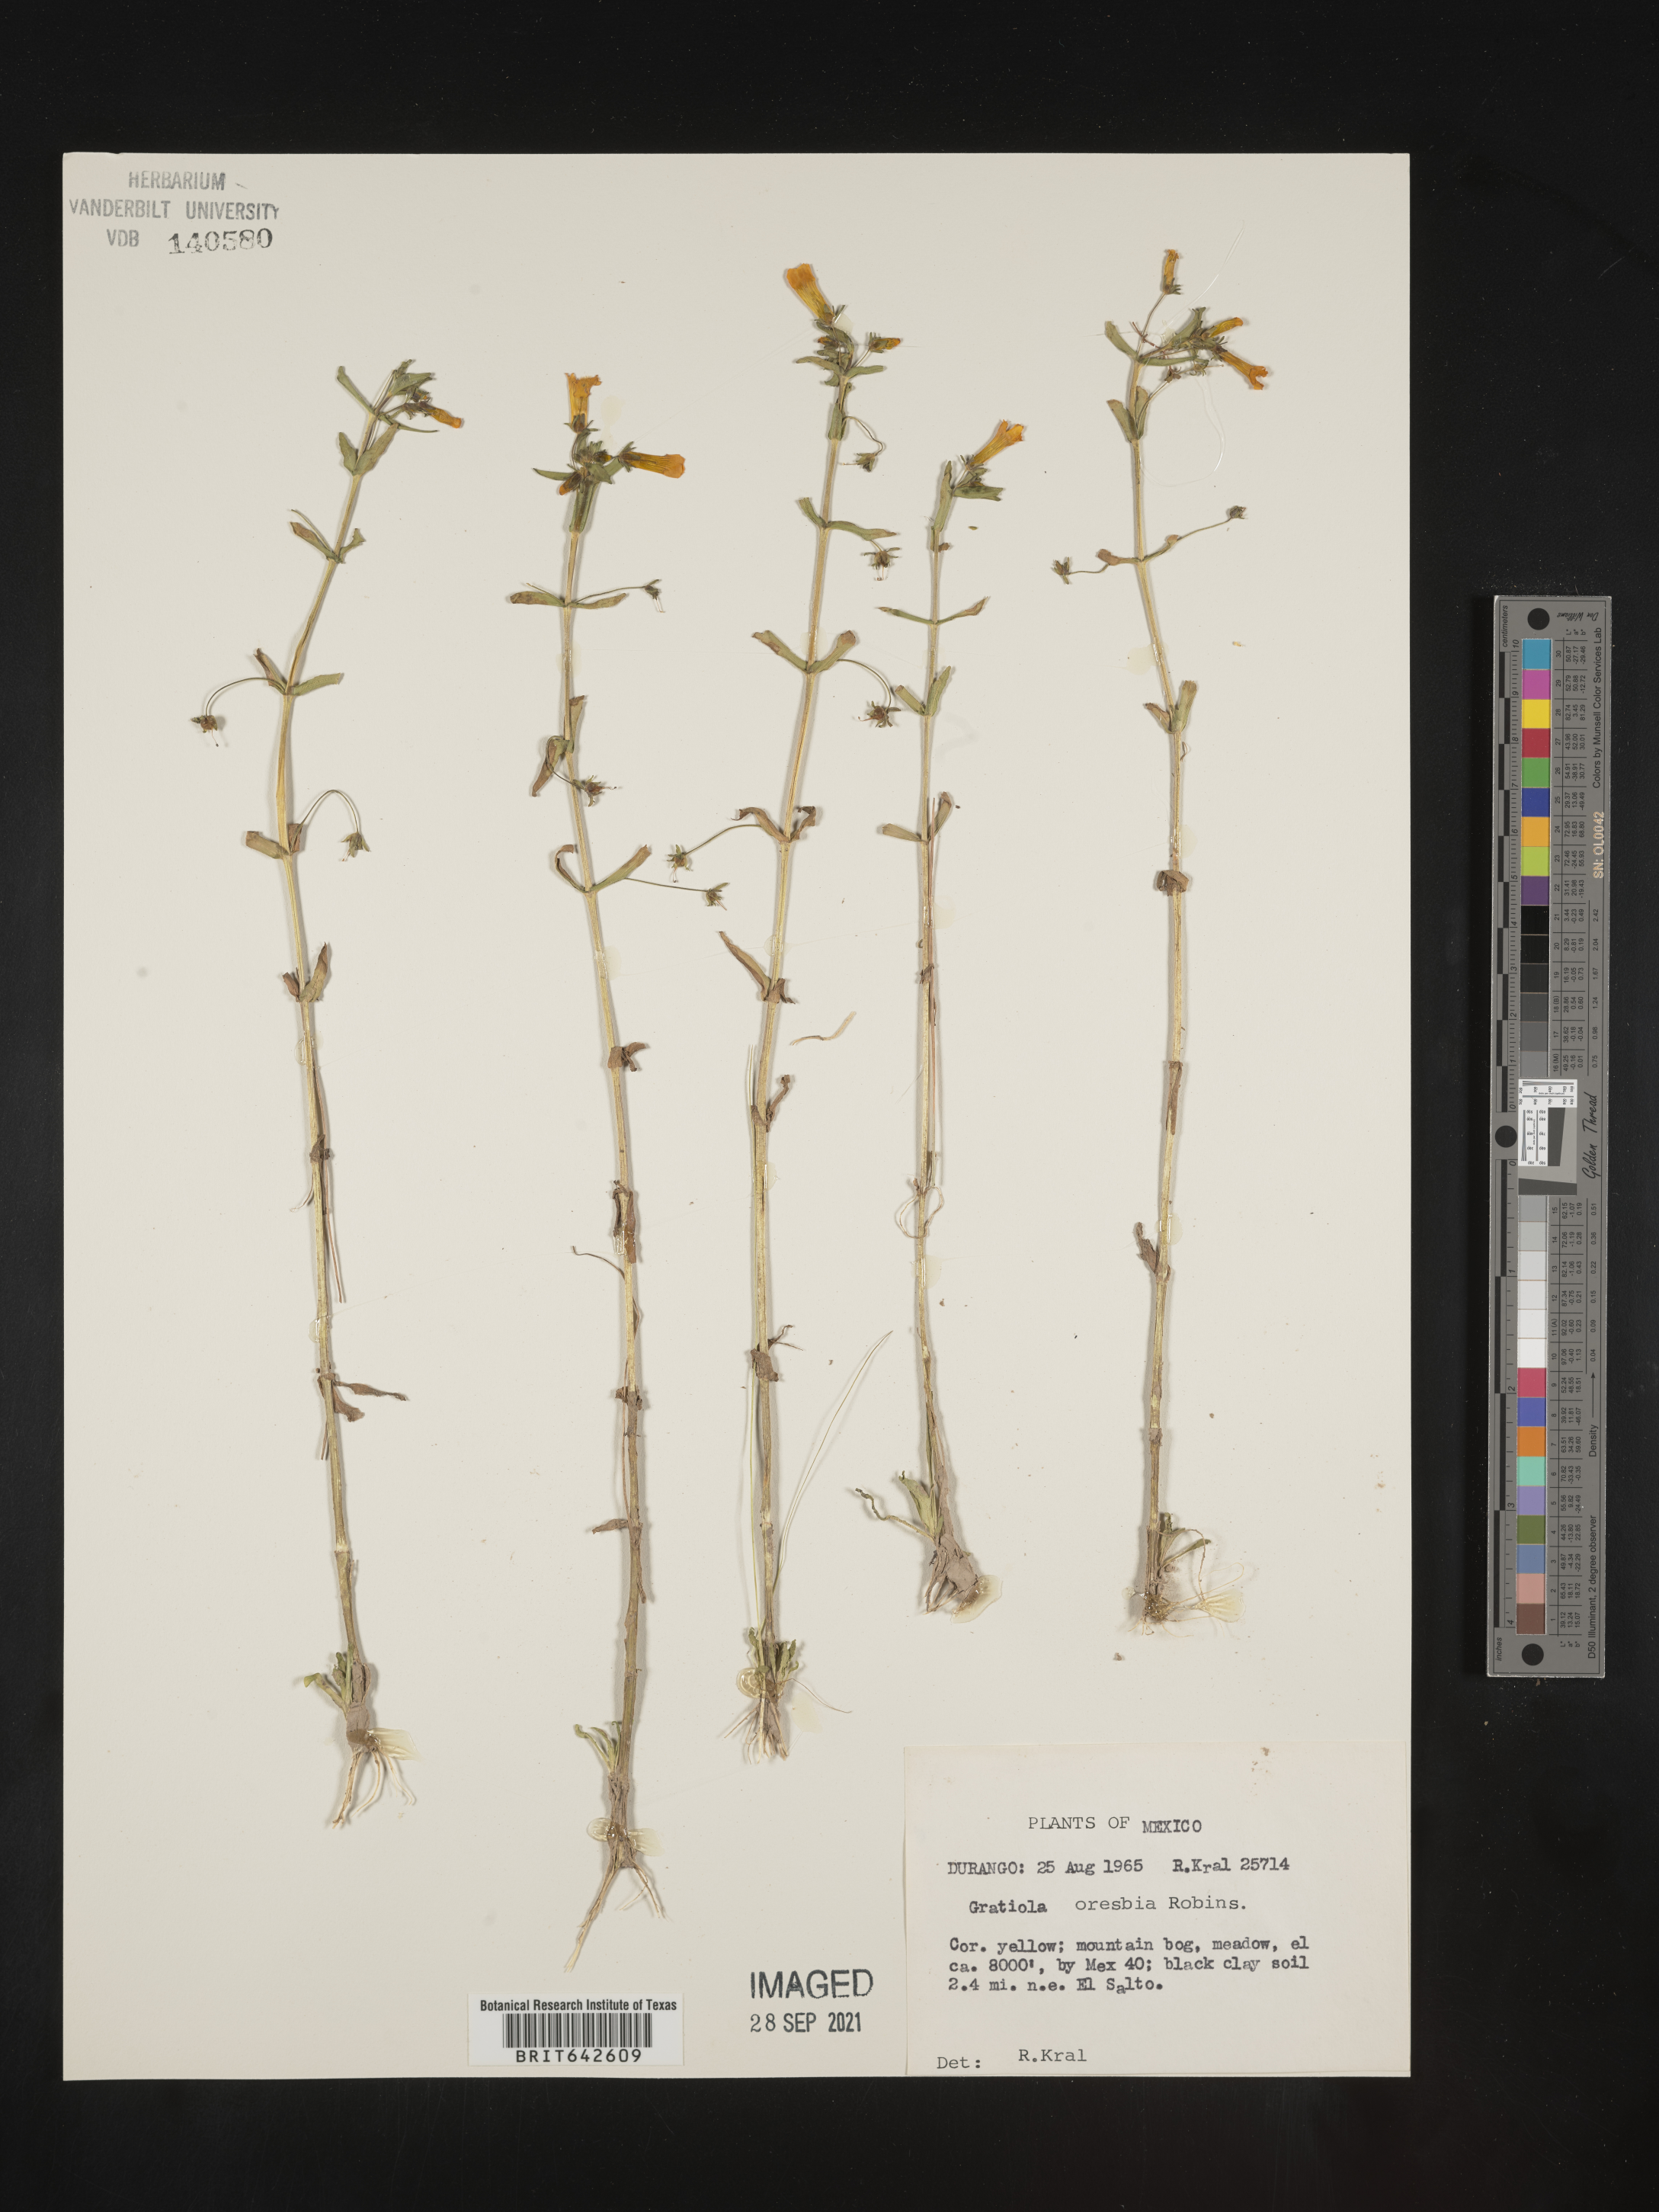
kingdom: Plantae
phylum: Tracheophyta
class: Magnoliopsida
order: Lamiales
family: Plantaginaceae
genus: Gratiola
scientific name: Gratiola
